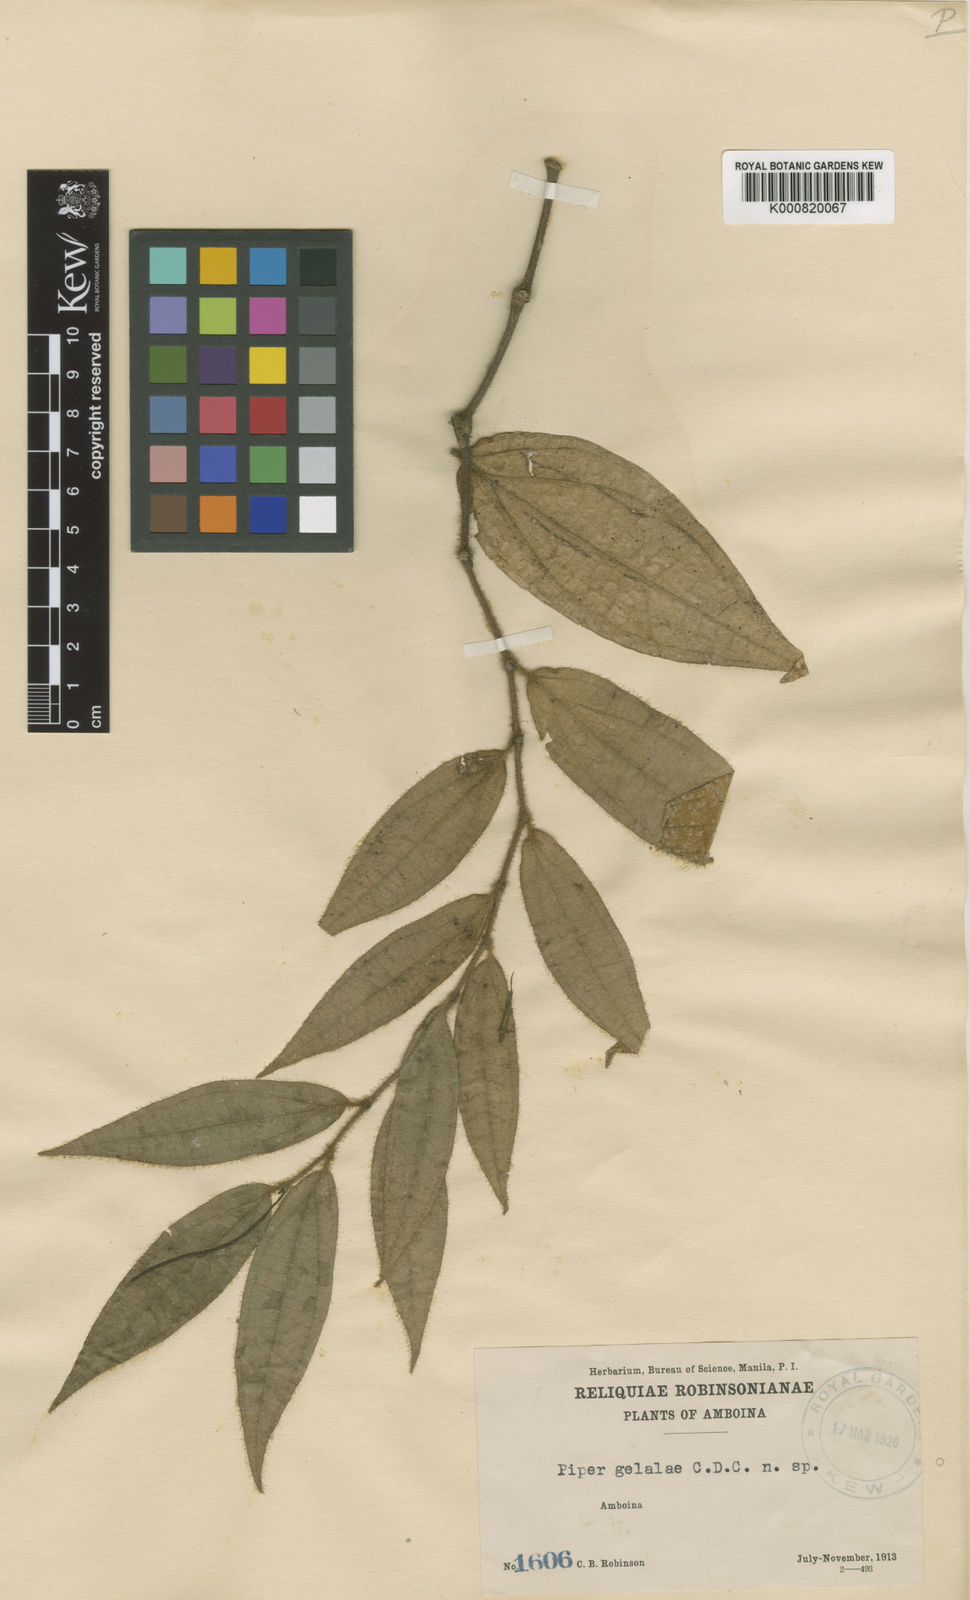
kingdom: Plantae
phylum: Tracheophyta
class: Magnoliopsida
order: Piperales
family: Piperaceae
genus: Piper
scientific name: Piper lanatum
